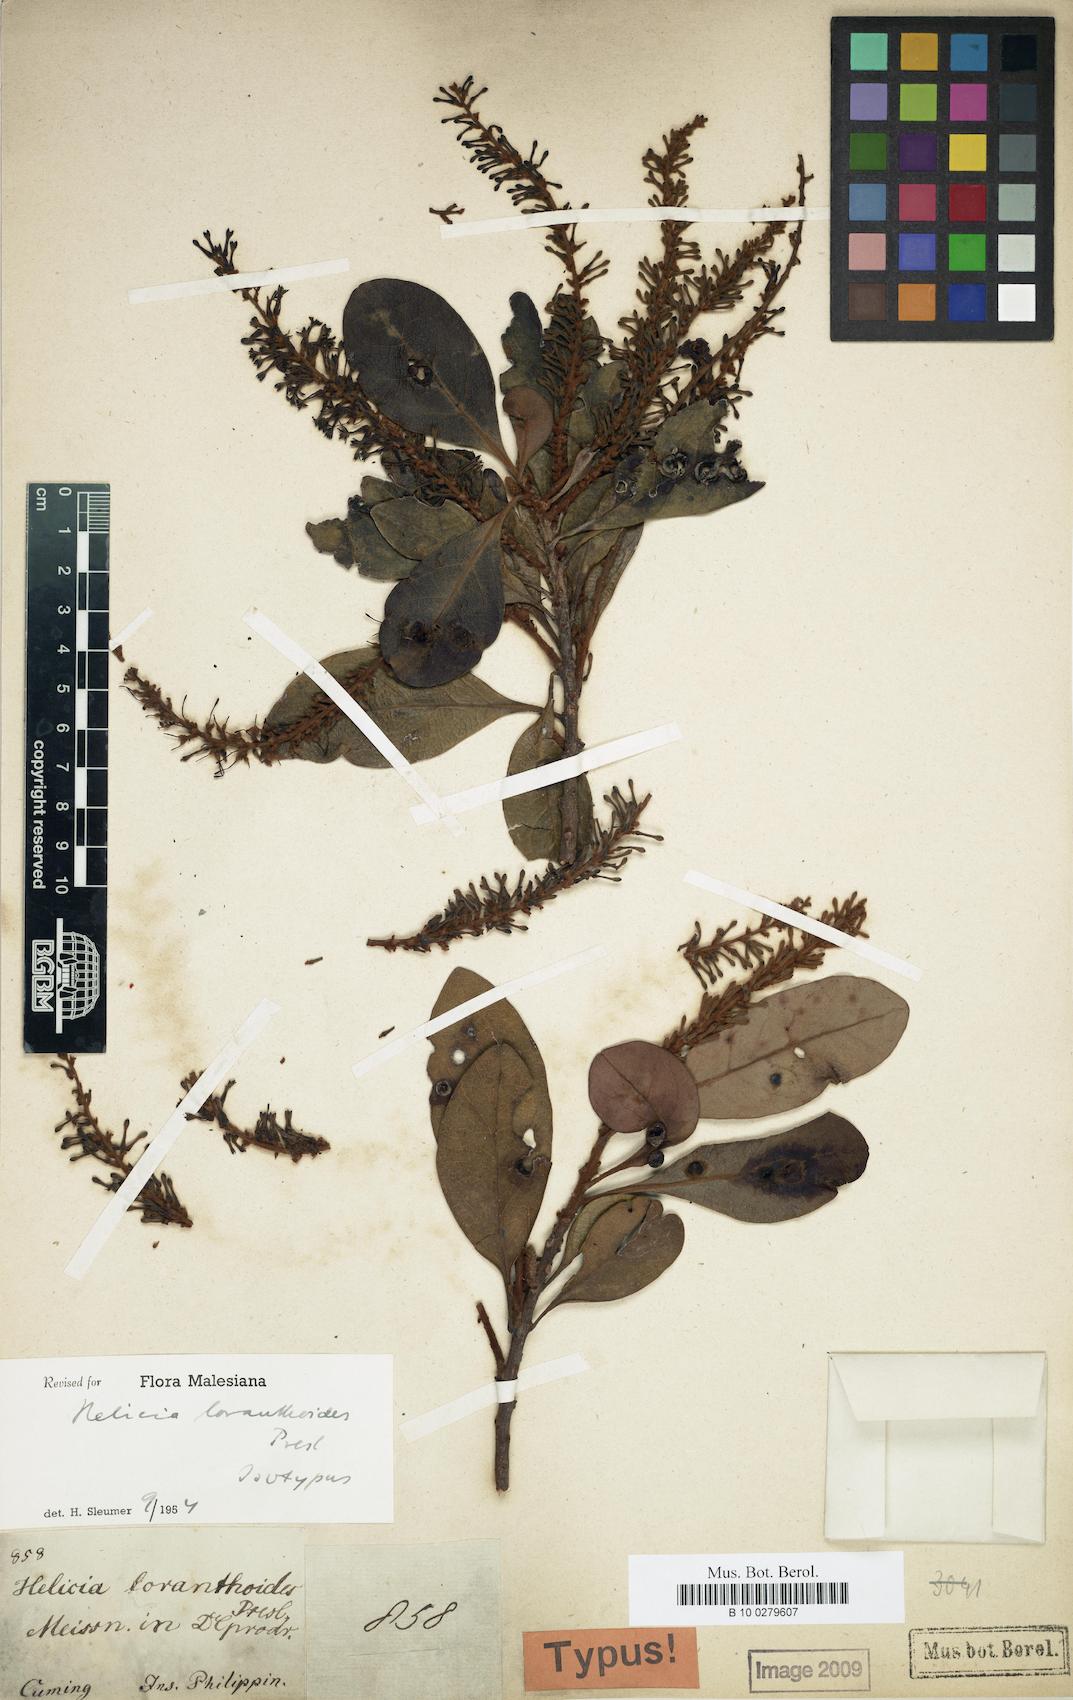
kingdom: Plantae
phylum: Tracheophyta
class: Magnoliopsida
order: Proteales
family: Proteaceae
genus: Helicia
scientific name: Helicia loranthoides
